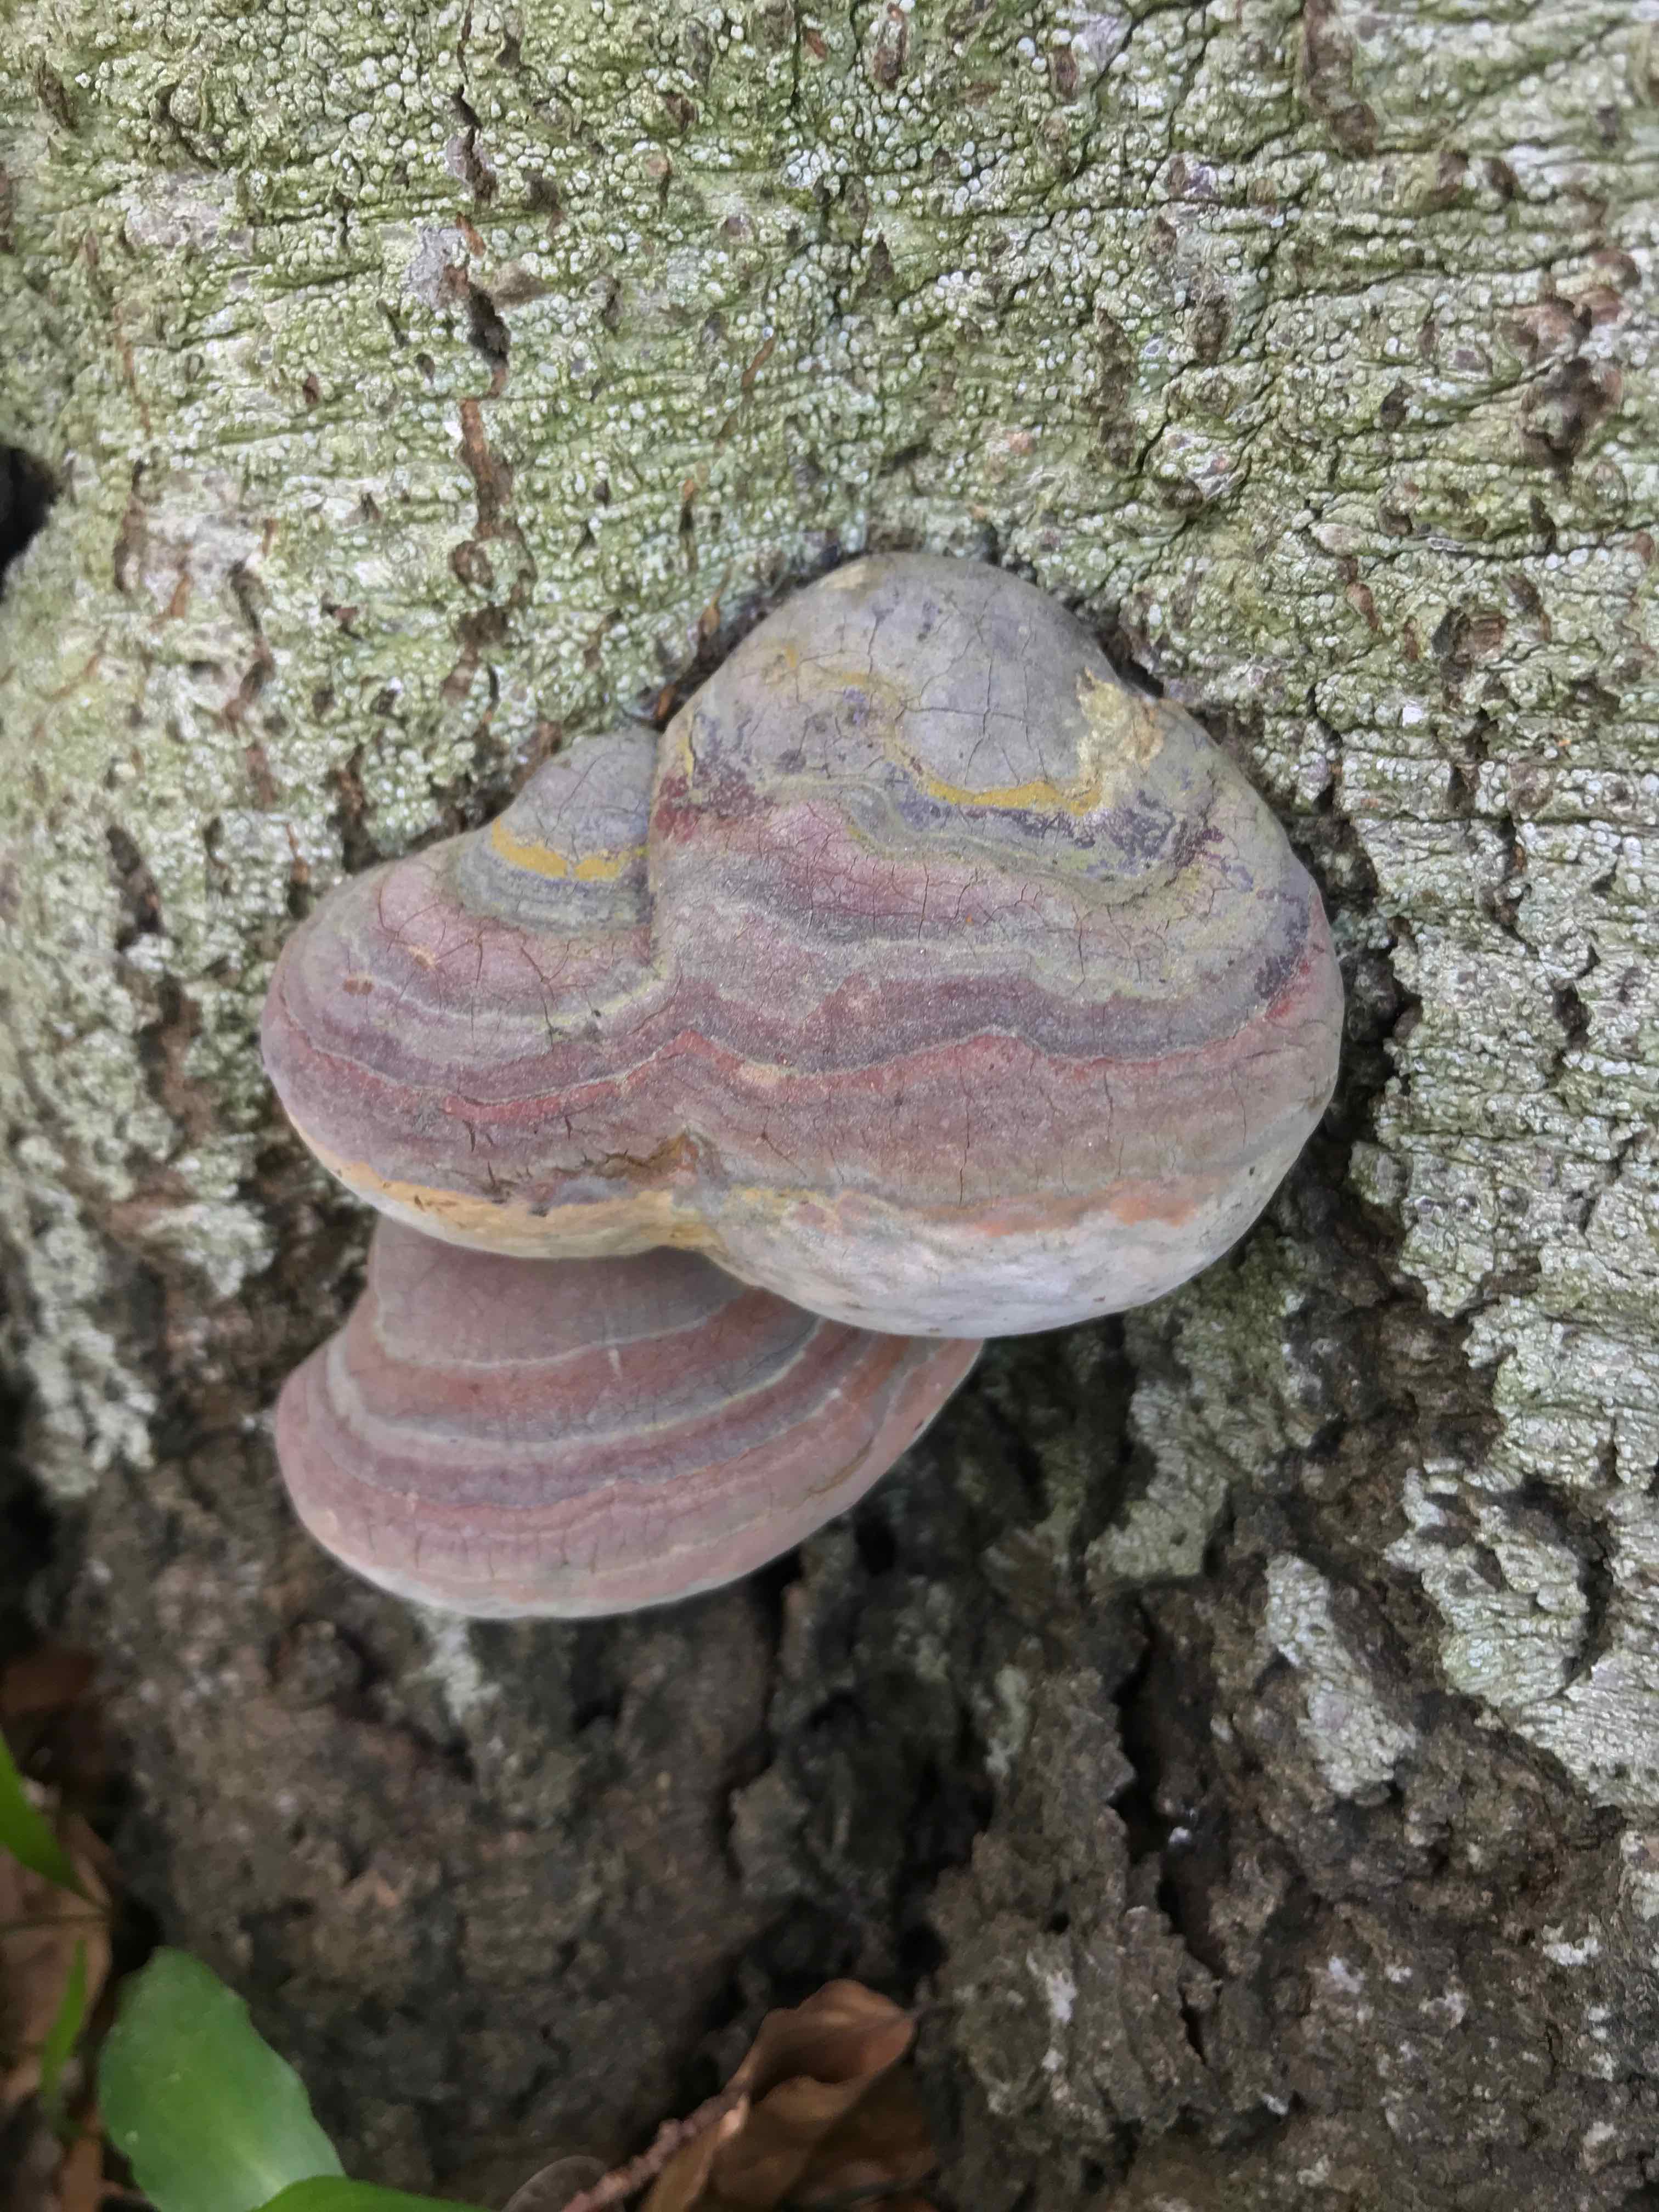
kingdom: Fungi
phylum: Basidiomycota
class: Agaricomycetes
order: Polyporales
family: Polyporaceae
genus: Ganoderma
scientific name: Ganoderma pfeifferi
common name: kobberrød lakporesvamp
